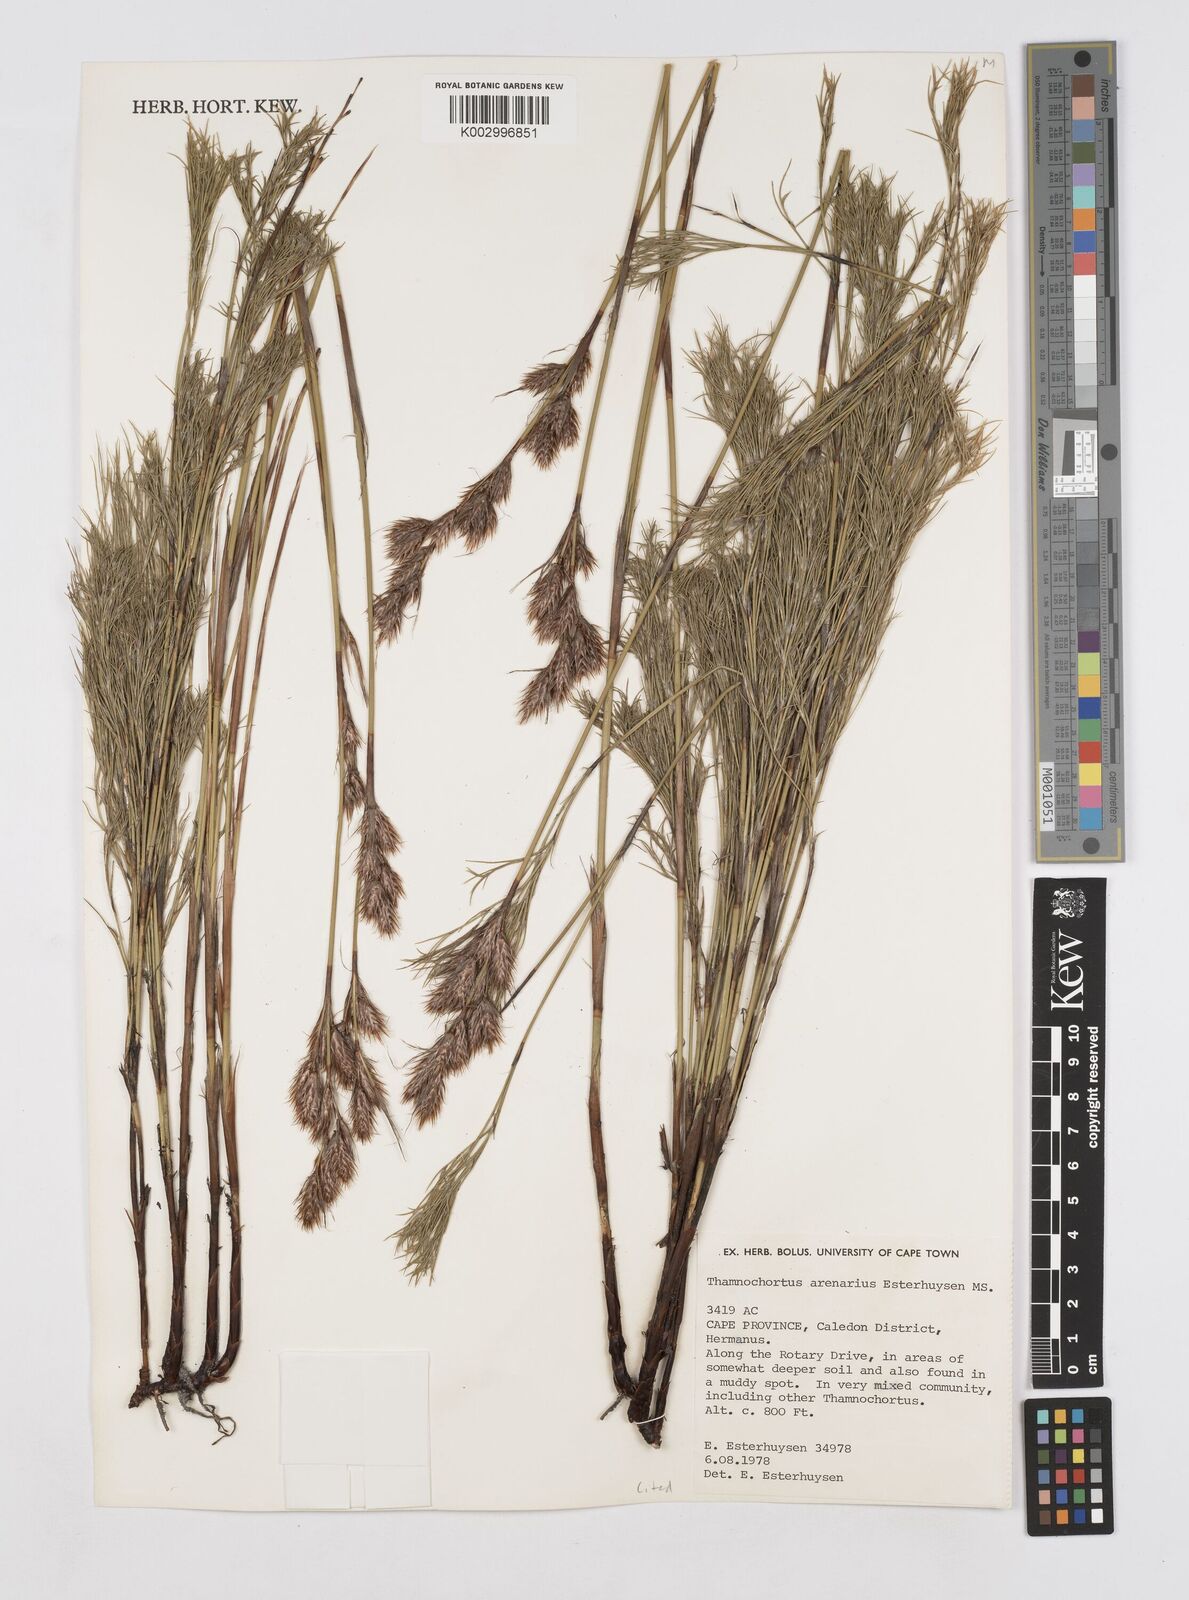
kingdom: Plantae
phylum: Tracheophyta
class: Liliopsida
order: Poales
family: Restionaceae
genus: Thamnochortus
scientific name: Thamnochortus arenarius
